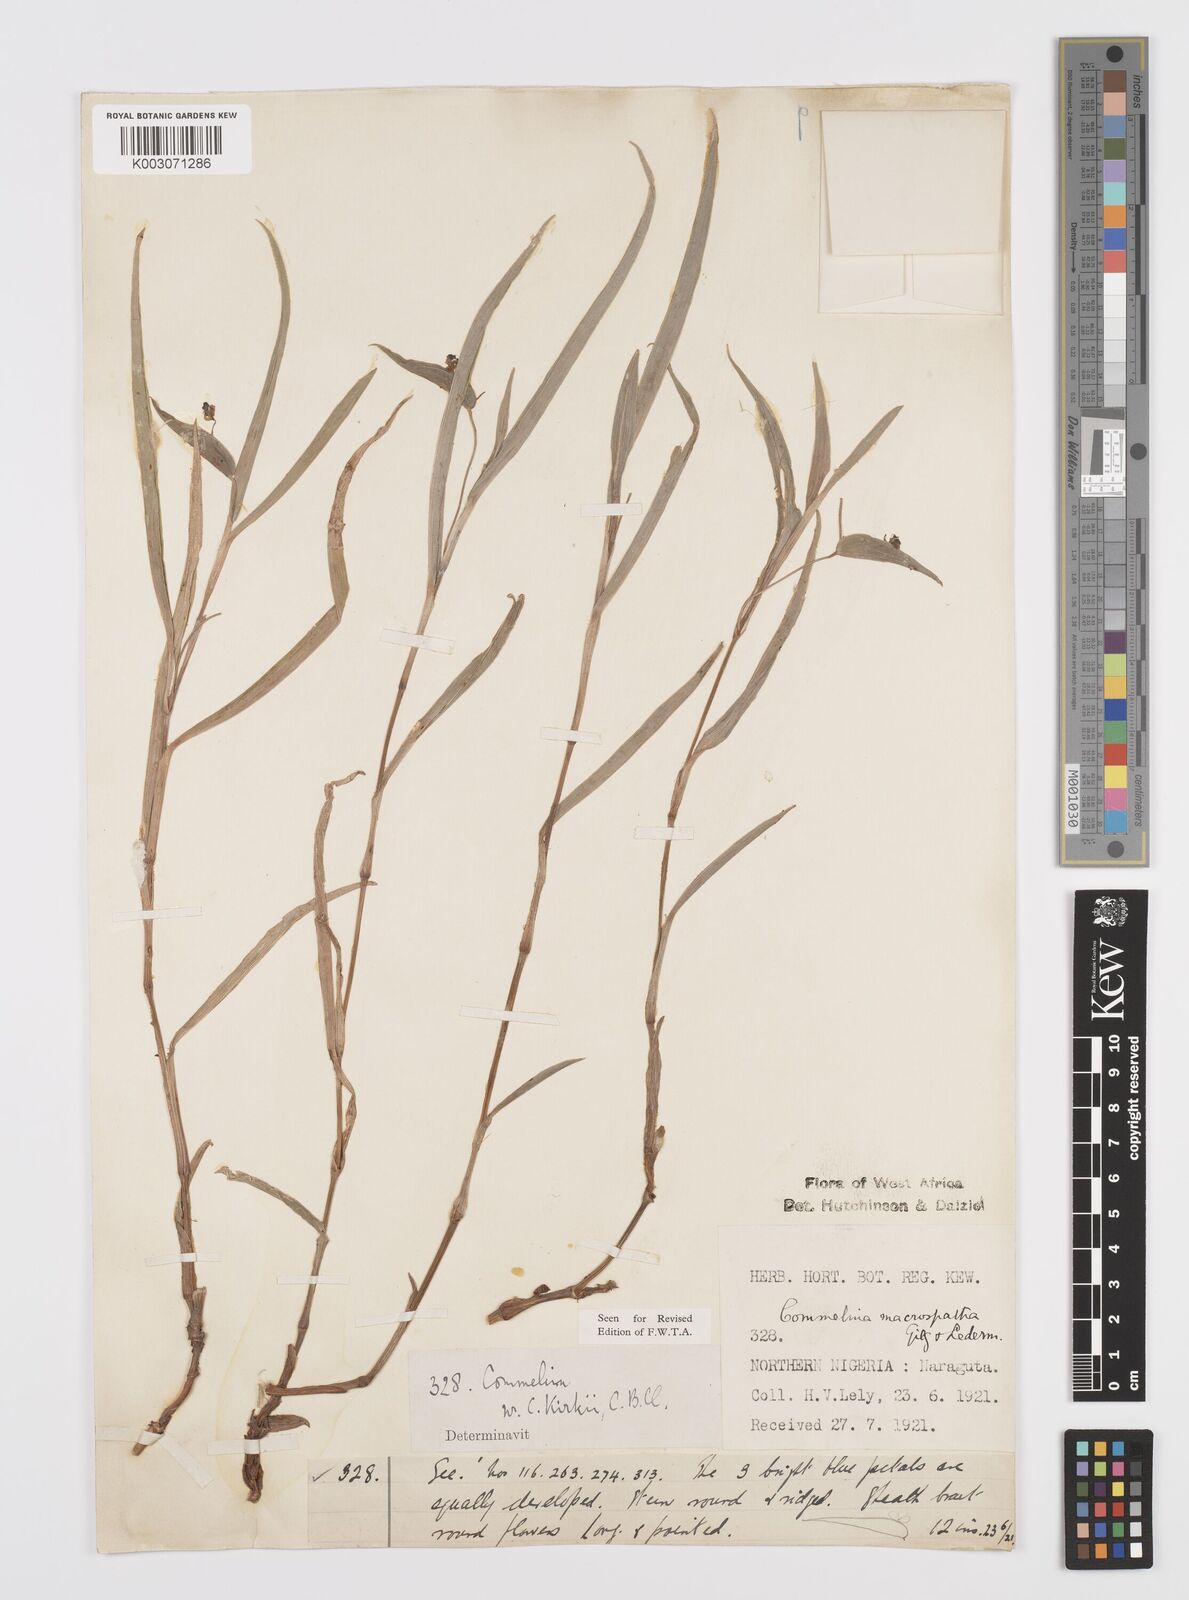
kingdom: Plantae
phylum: Tracheophyta
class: Liliopsida
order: Commelinales
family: Commelinaceae
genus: Commelina
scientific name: Commelina macrospatha
